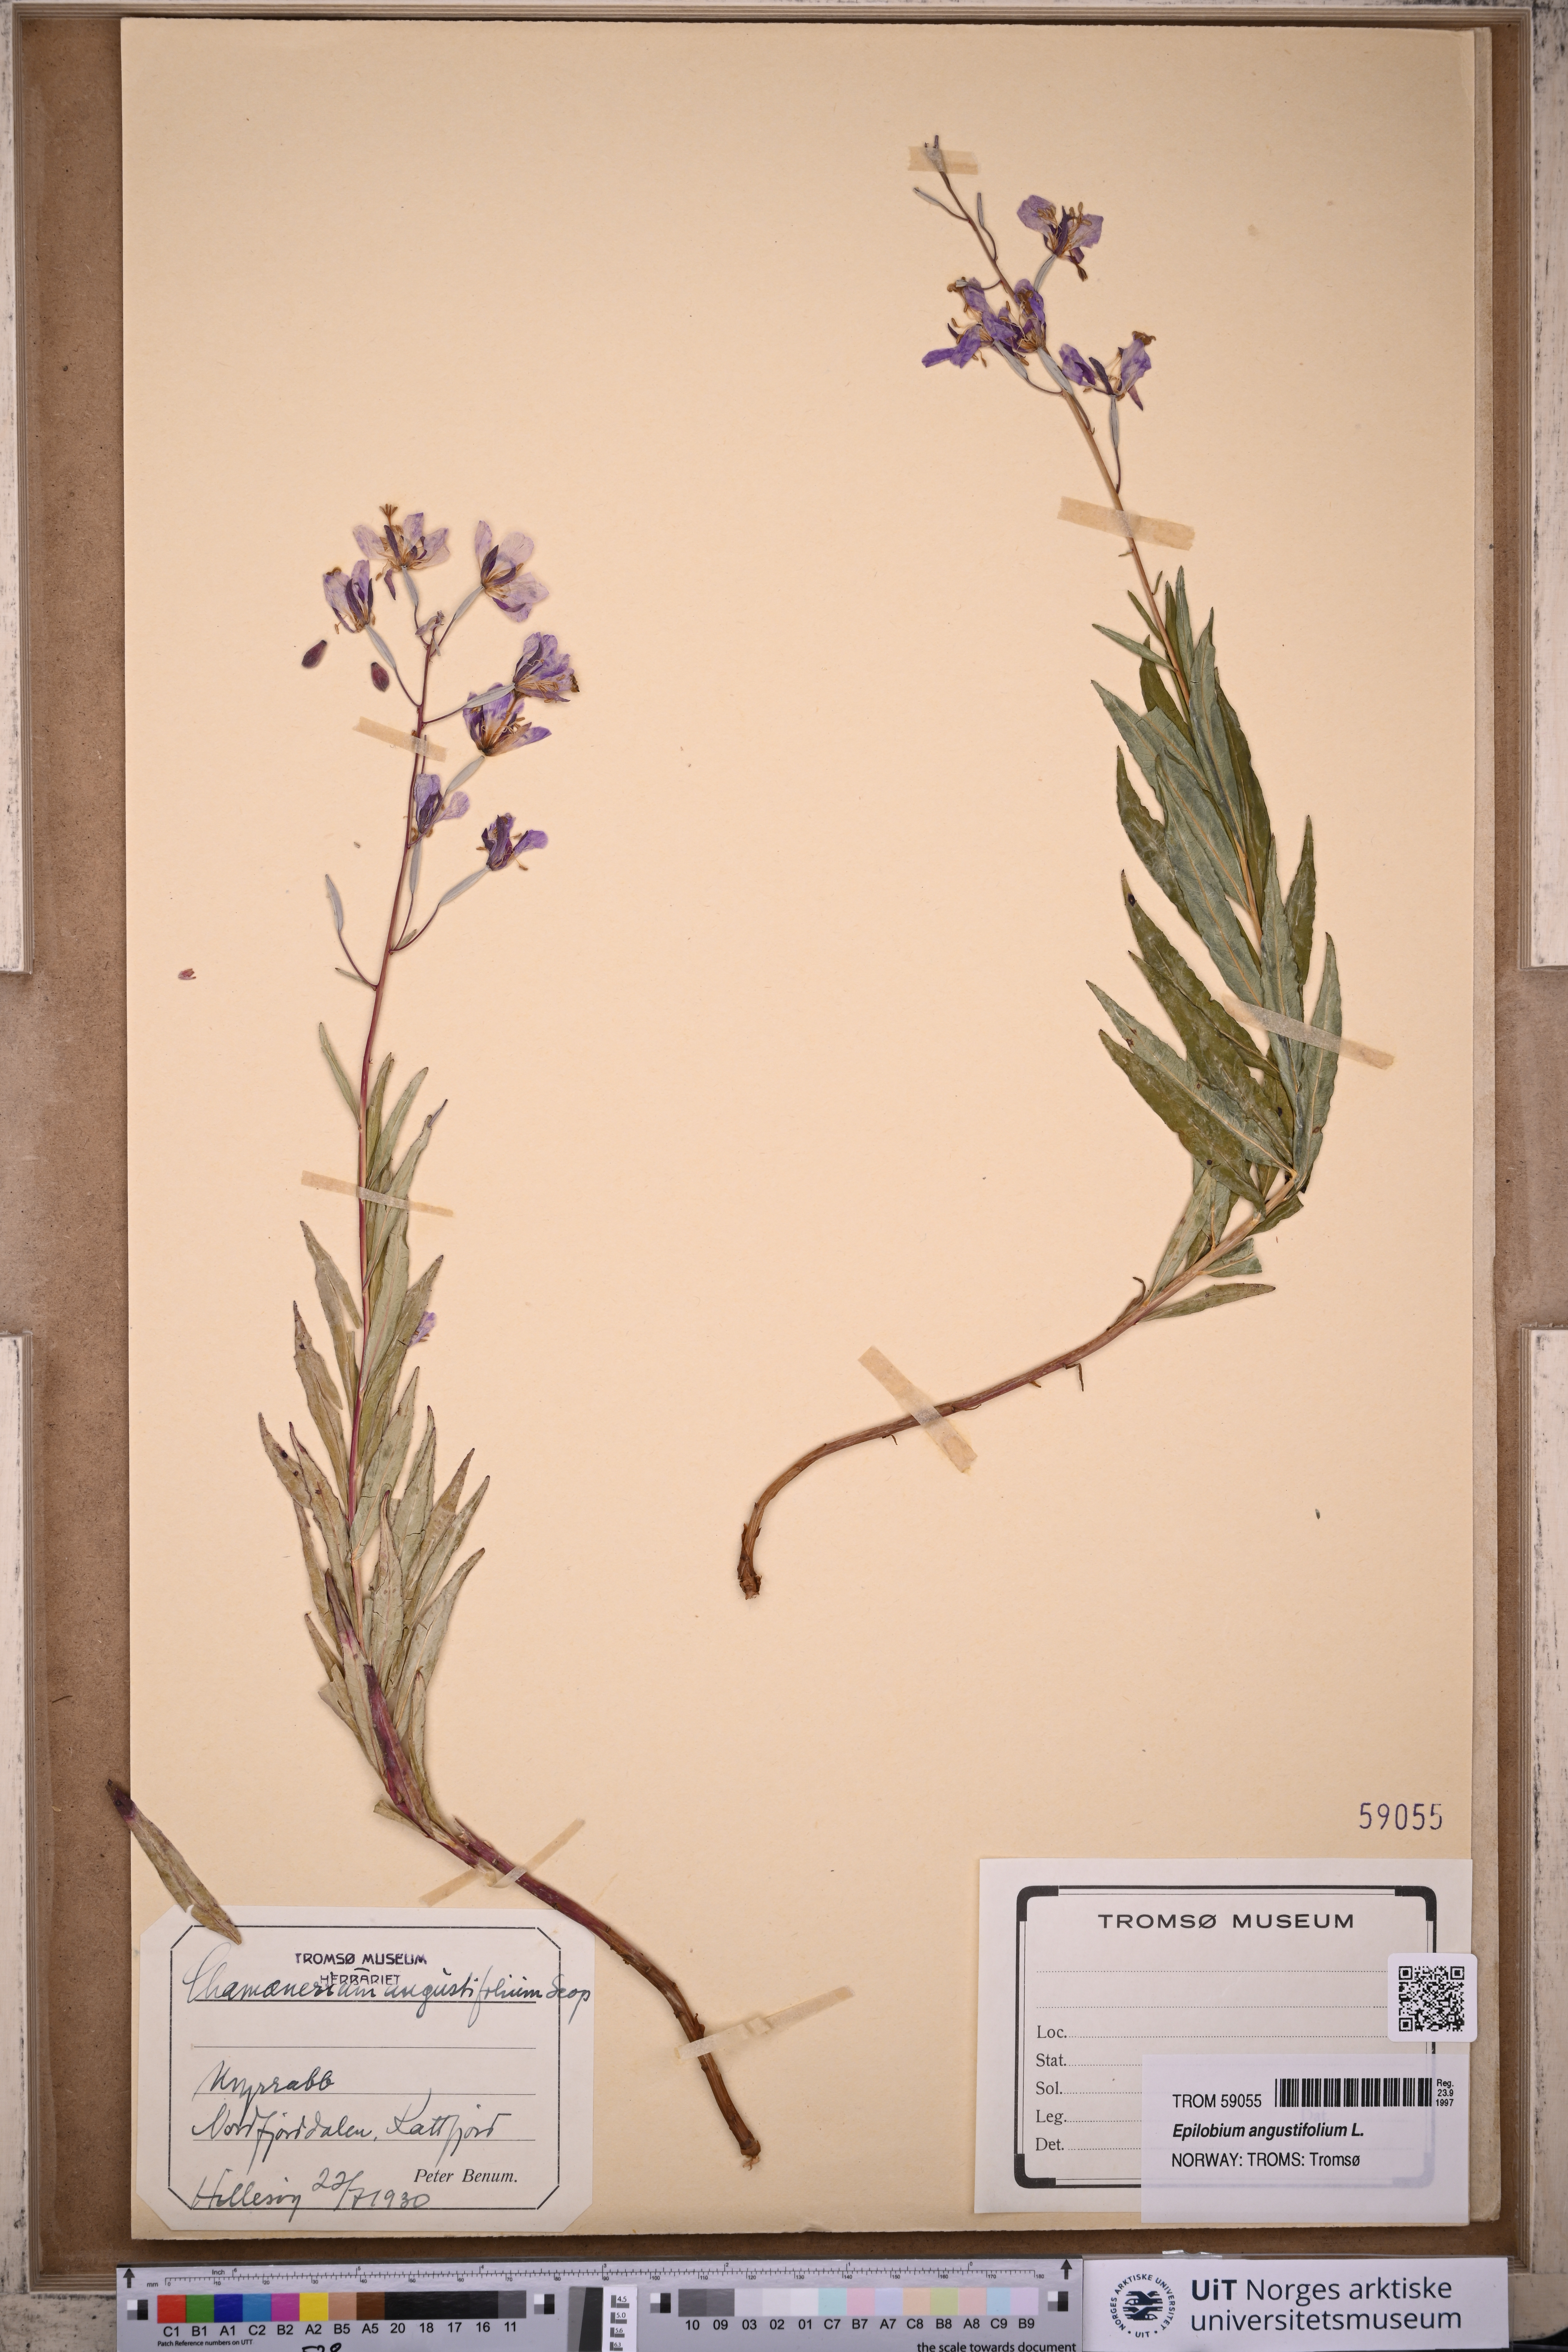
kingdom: Plantae
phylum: Tracheophyta
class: Magnoliopsida
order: Myrtales
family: Onagraceae
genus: Chamaenerion
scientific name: Chamaenerion angustifolium
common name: Fireweed
